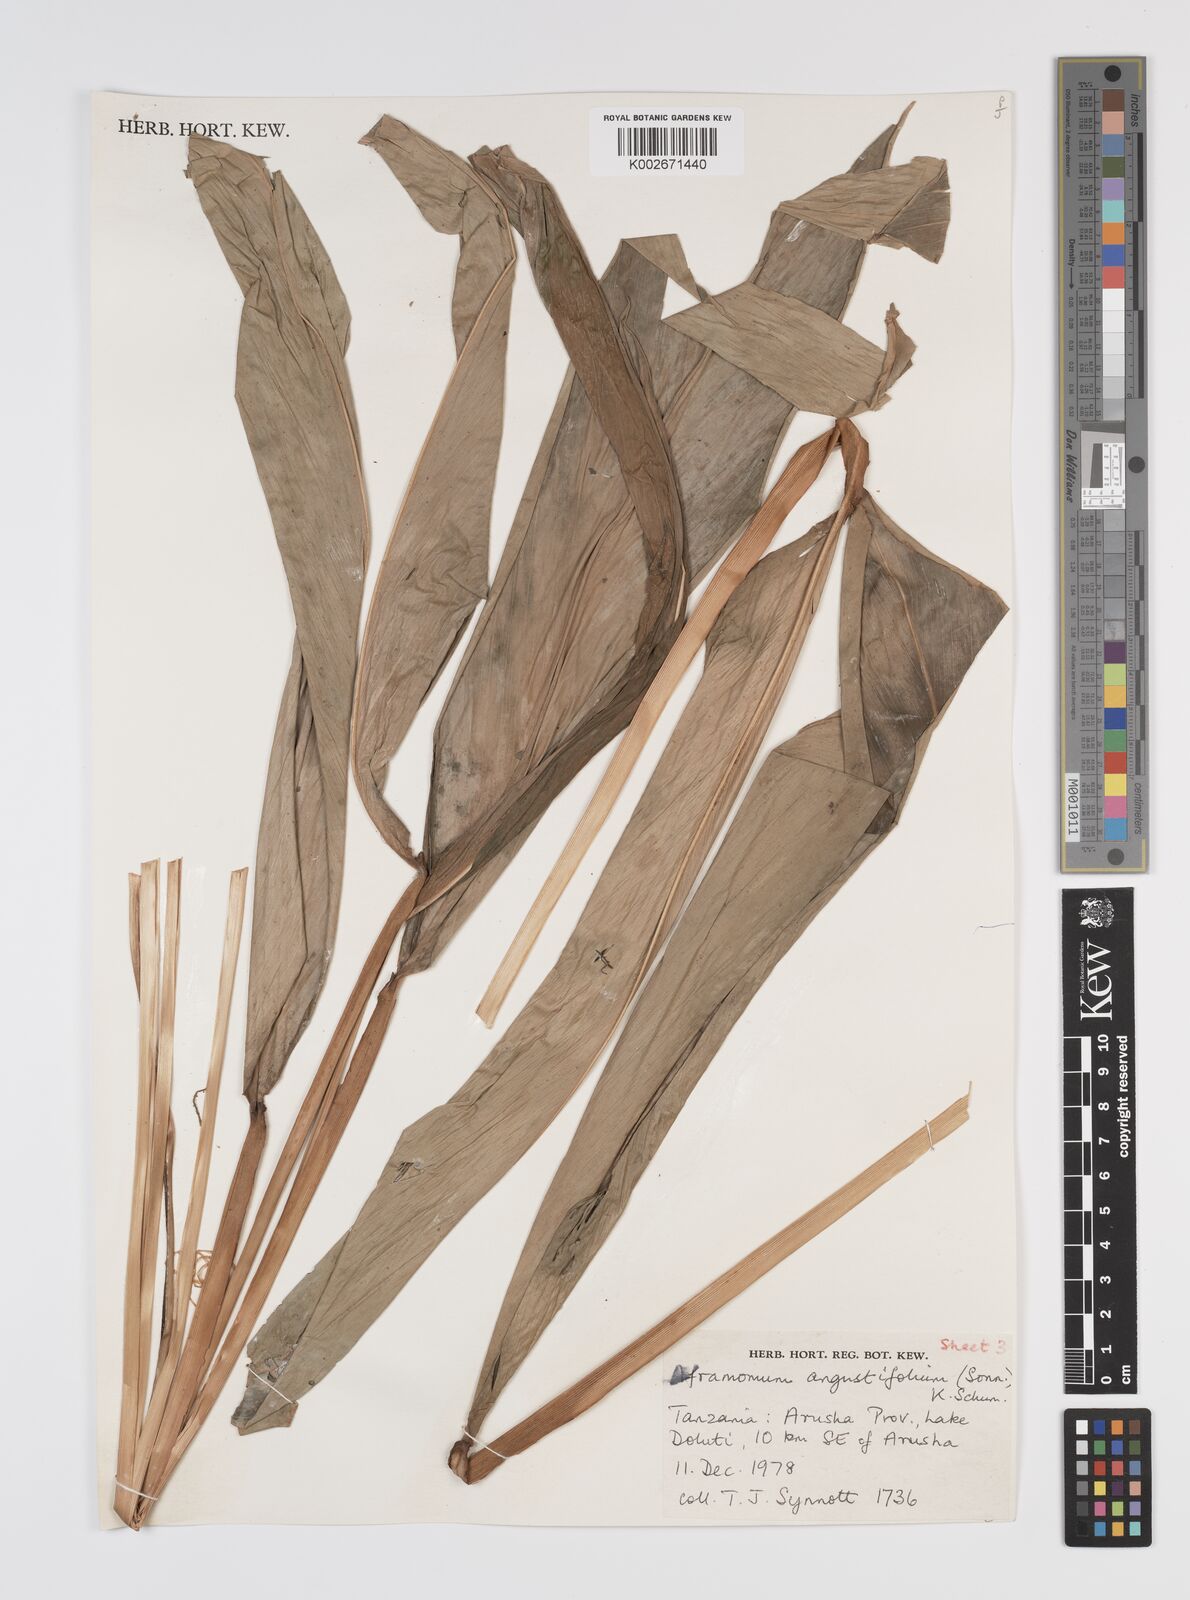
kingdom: Plantae
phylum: Tracheophyta
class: Liliopsida
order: Zingiberales
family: Zingiberaceae
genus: Aframomum
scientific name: Aframomum angustifolium
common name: Guinea grains
